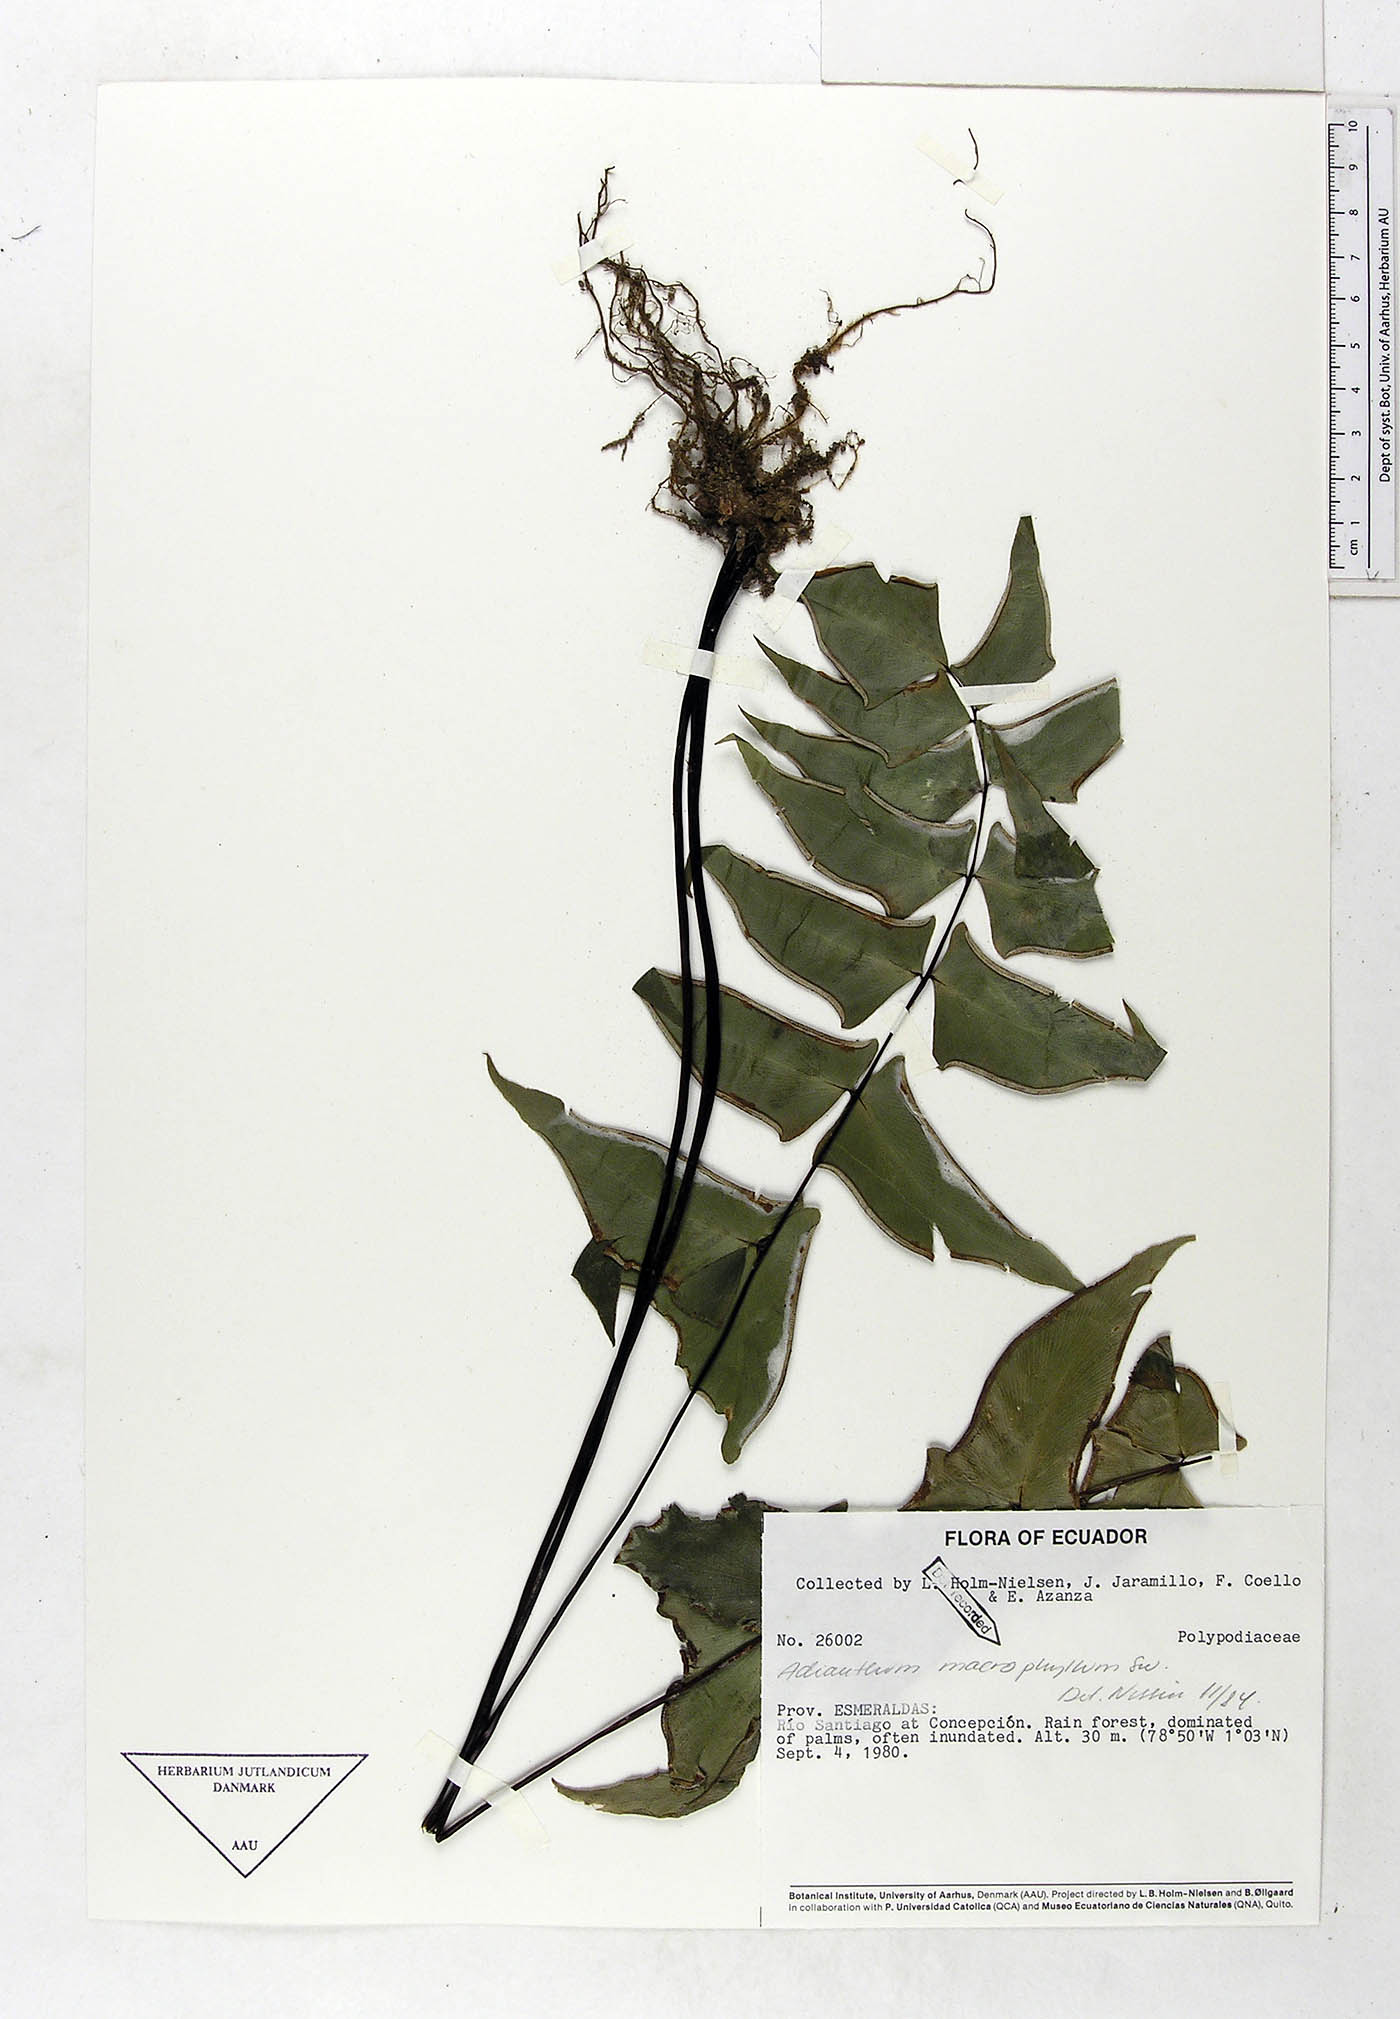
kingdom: Plantae
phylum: Tracheophyta
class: Polypodiopsida
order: Polypodiales
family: Pteridaceae
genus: Adiantum
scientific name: Adiantum macrophyllum
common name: Largeleaf maidenhair
